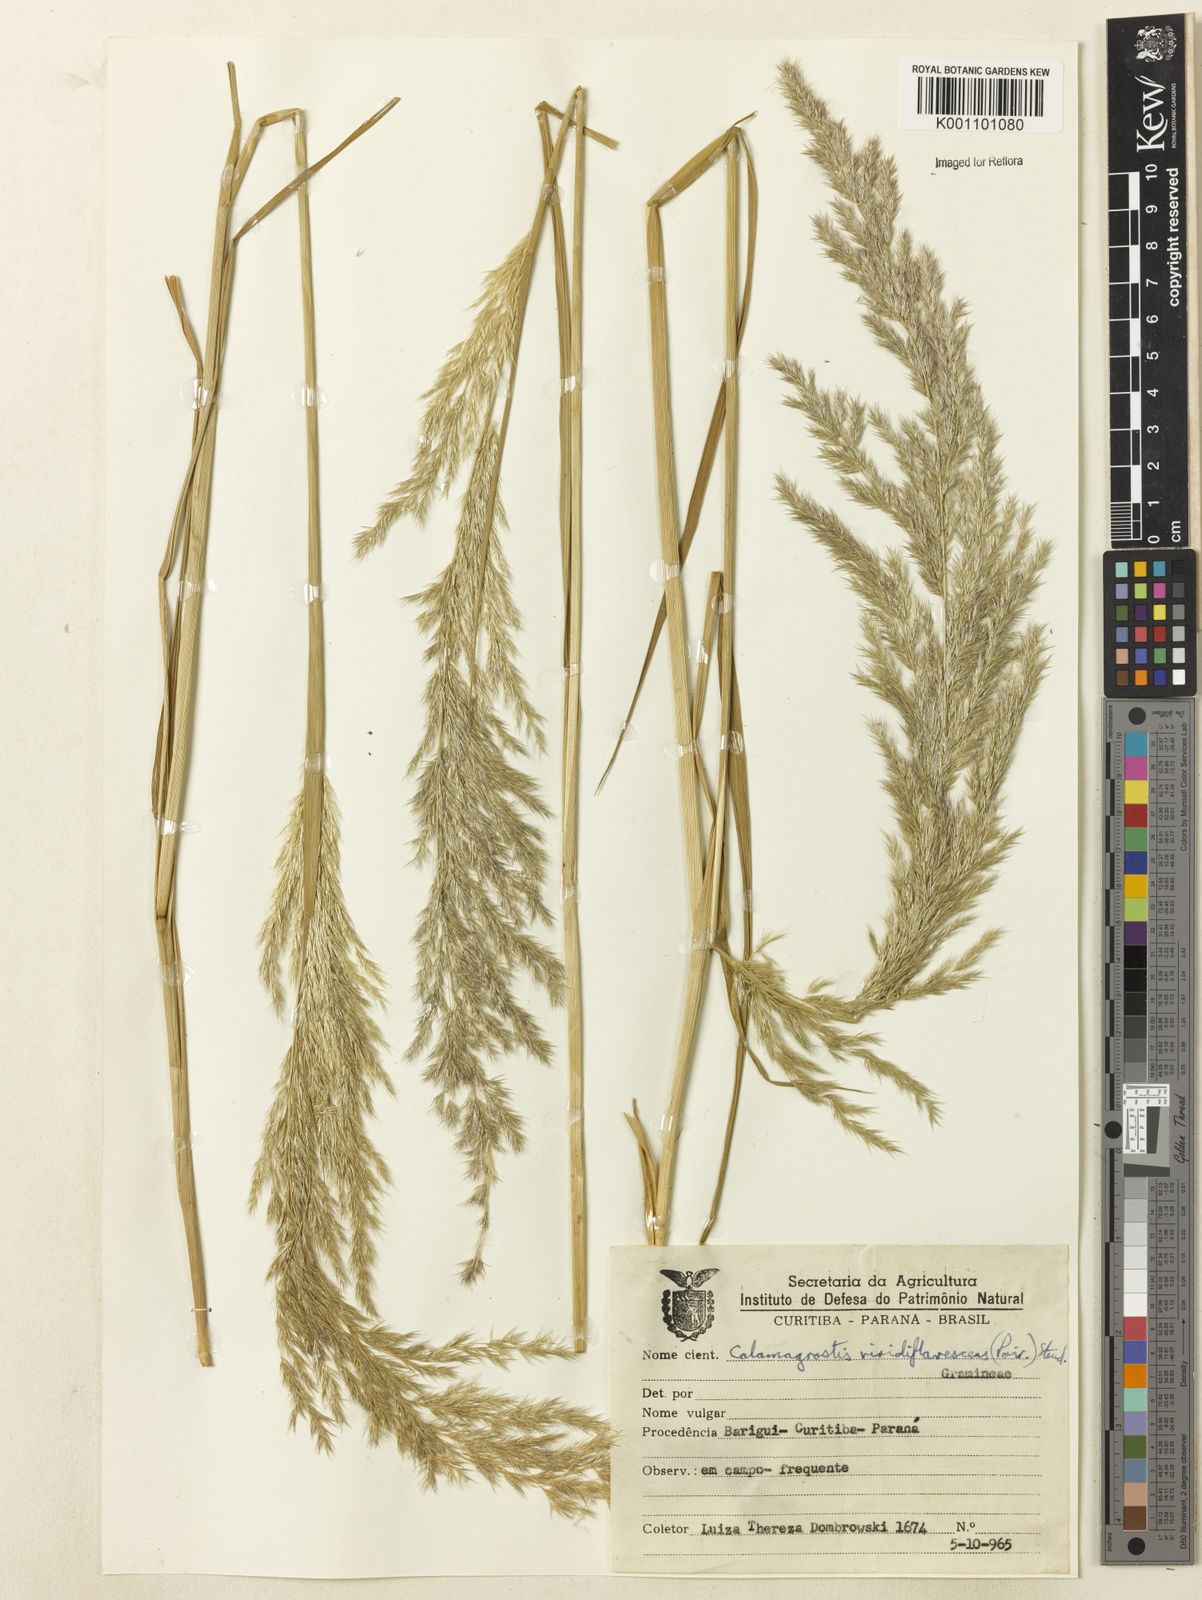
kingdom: Plantae
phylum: Tracheophyta
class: Liliopsida
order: Poales
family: Poaceae
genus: Cinnagrostis
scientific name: Cinnagrostis viridiflavescens
